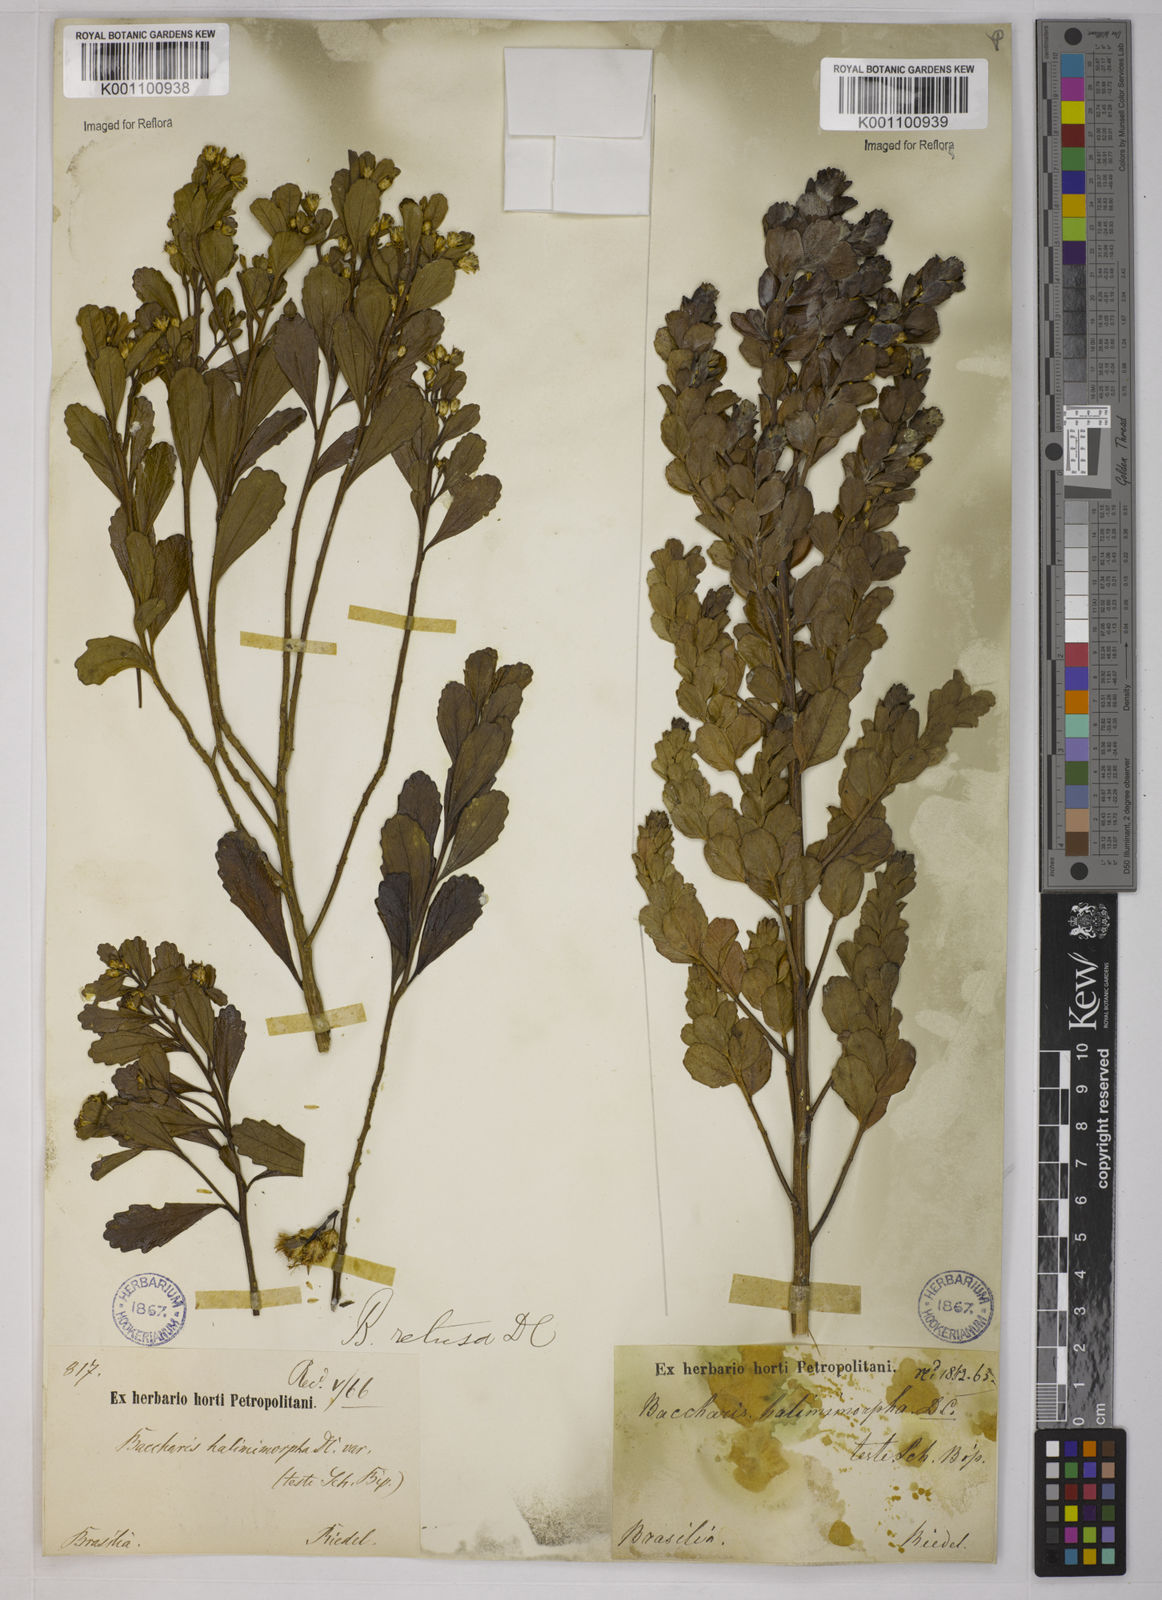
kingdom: Plantae
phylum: Tracheophyta
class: Magnoliopsida
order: Asterales
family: Asteraceae
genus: Baccharis
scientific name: Baccharis retusa
